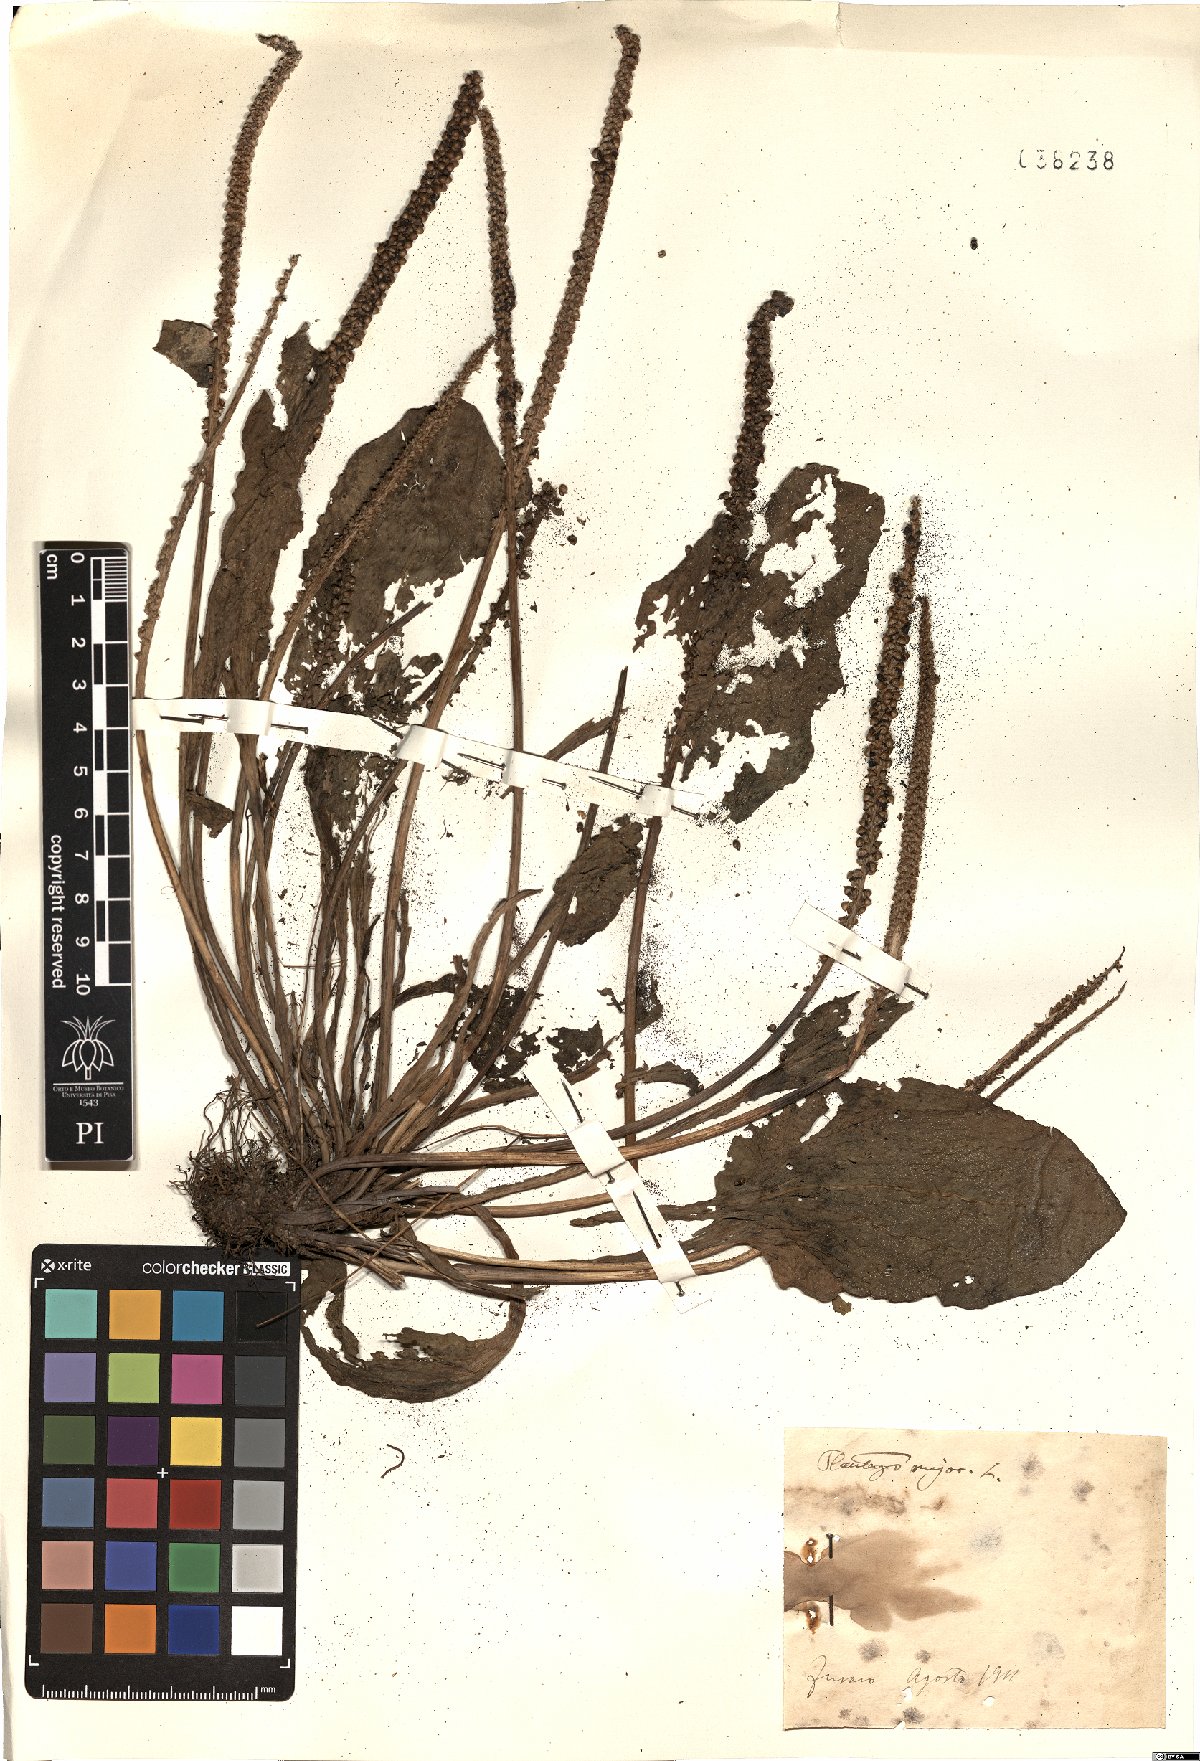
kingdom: Plantae
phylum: Tracheophyta
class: Magnoliopsida
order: Lamiales
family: Plantaginaceae
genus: Plantago
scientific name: Plantago major
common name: Common plantain
